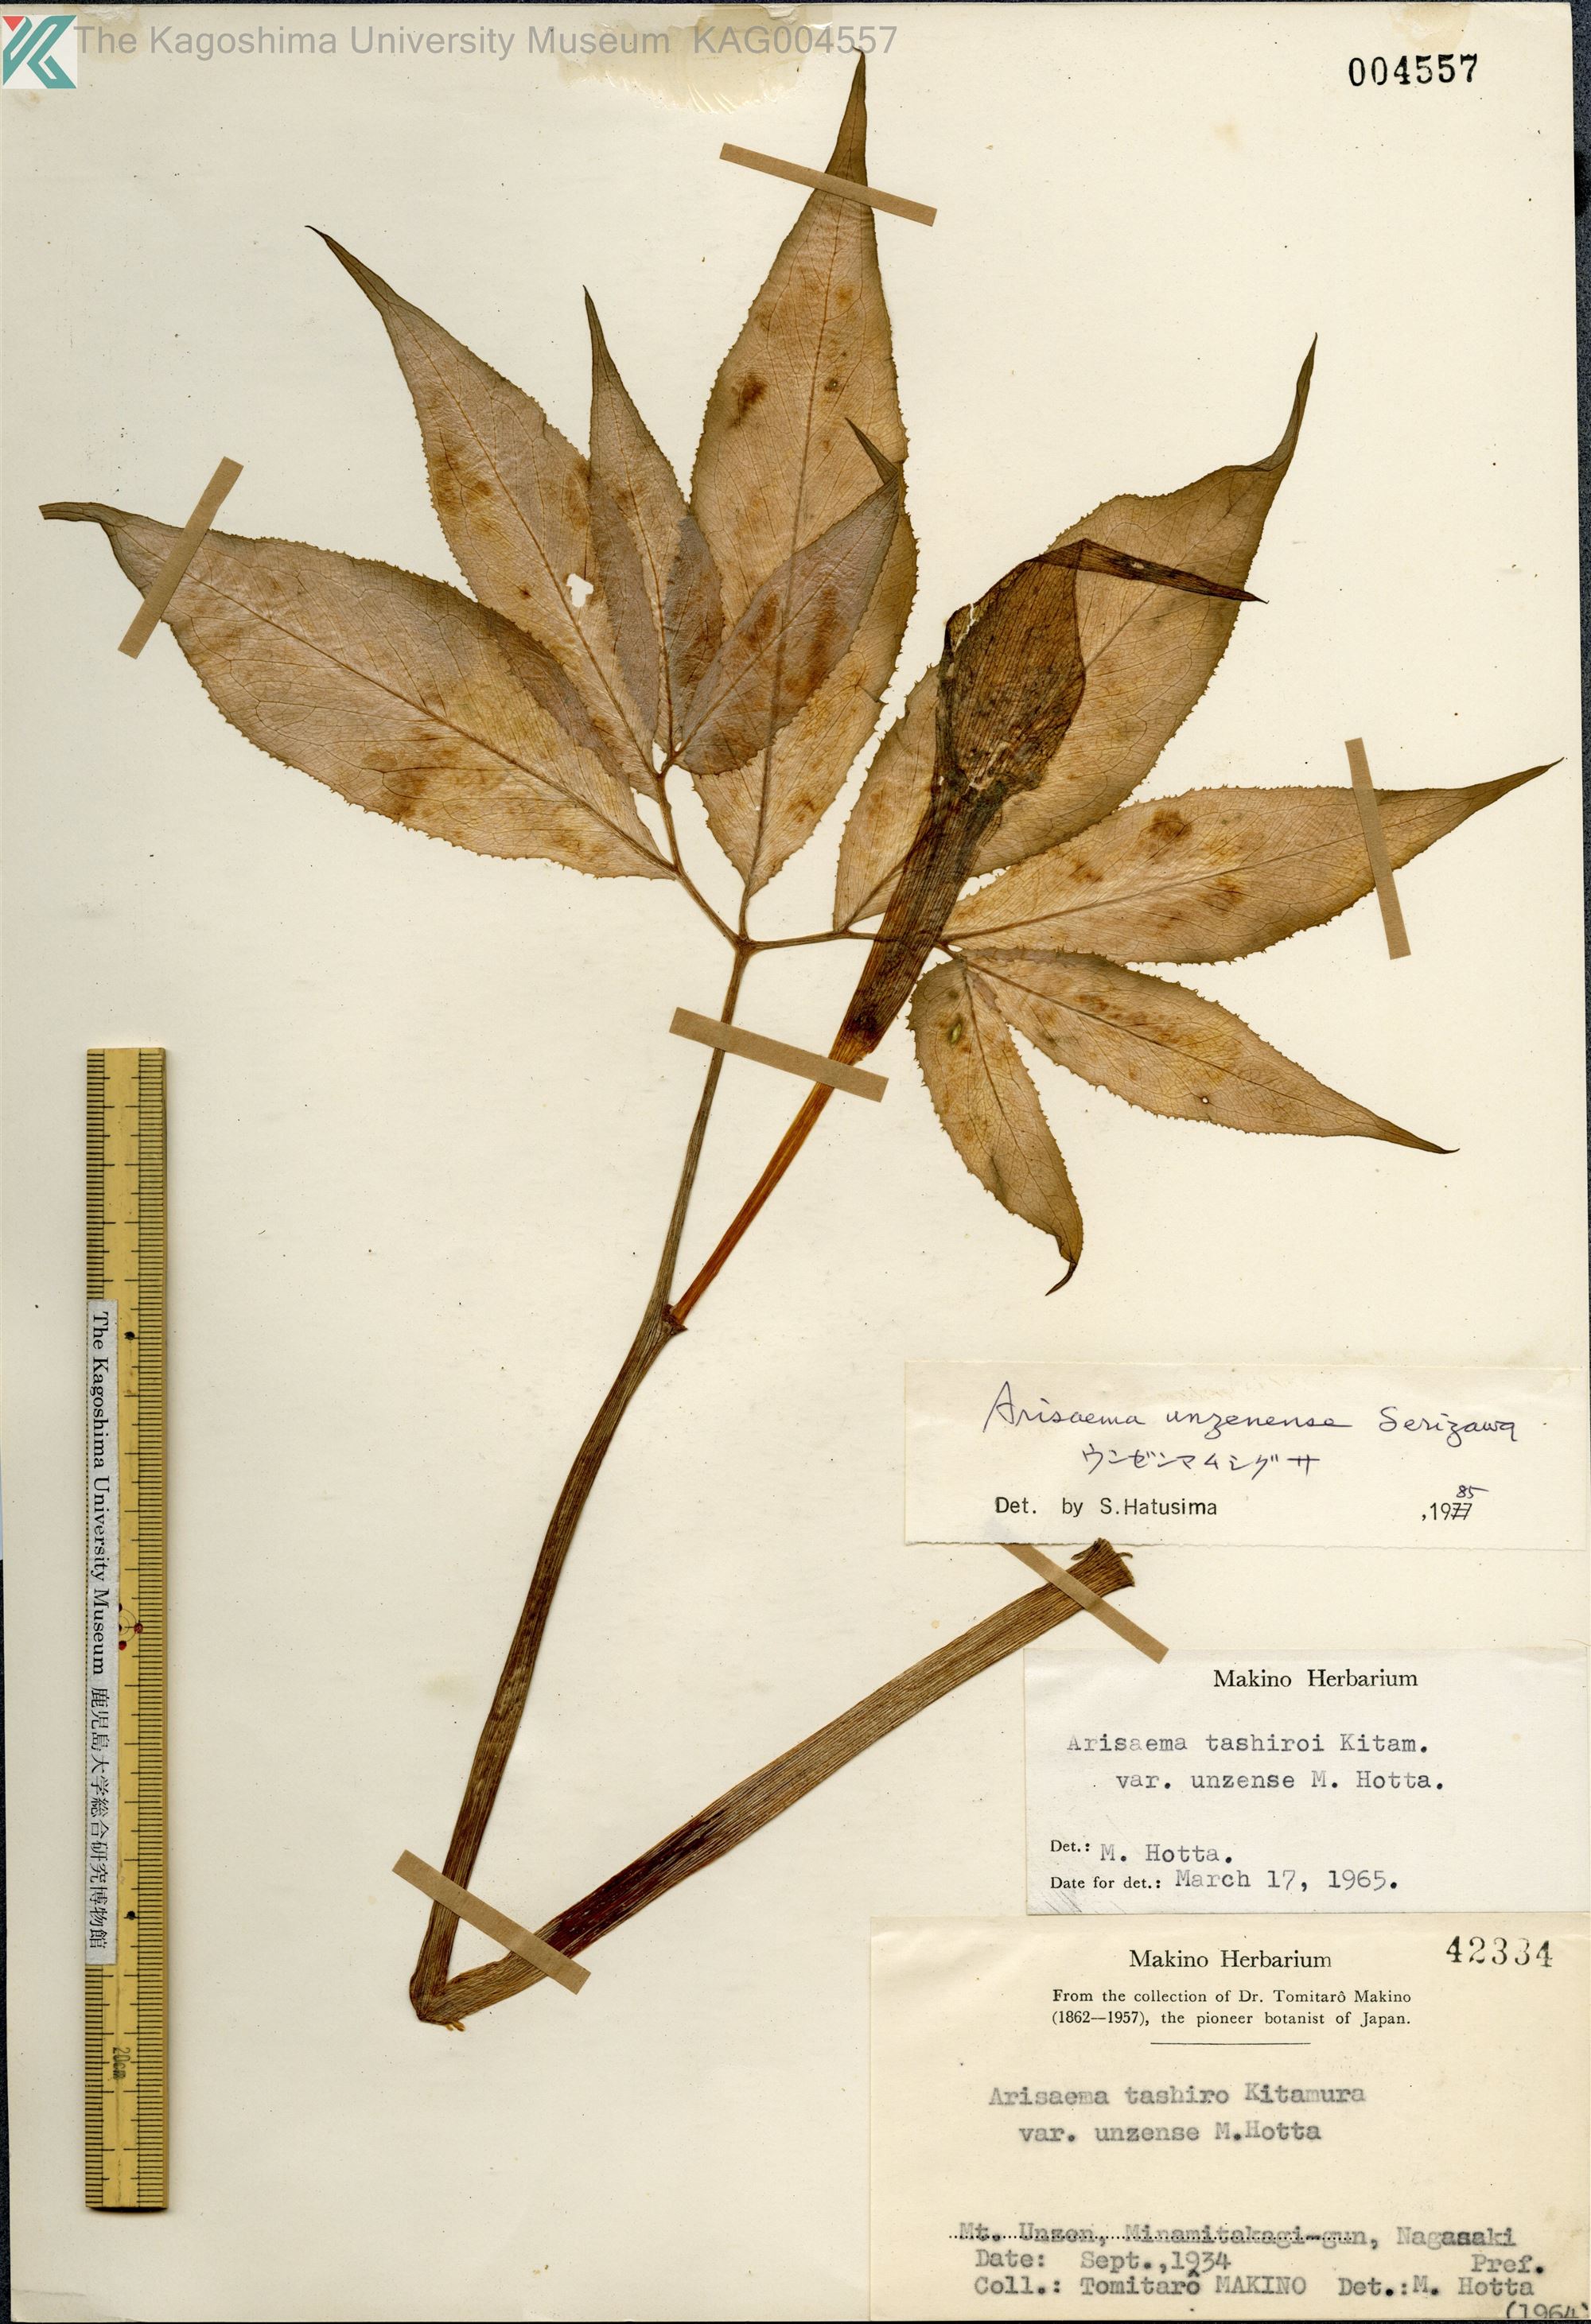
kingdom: Plantae
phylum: Tracheophyta
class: Liliopsida
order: Alismatales
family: Araceae
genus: Arisaema
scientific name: Arisaema maximowiczii
